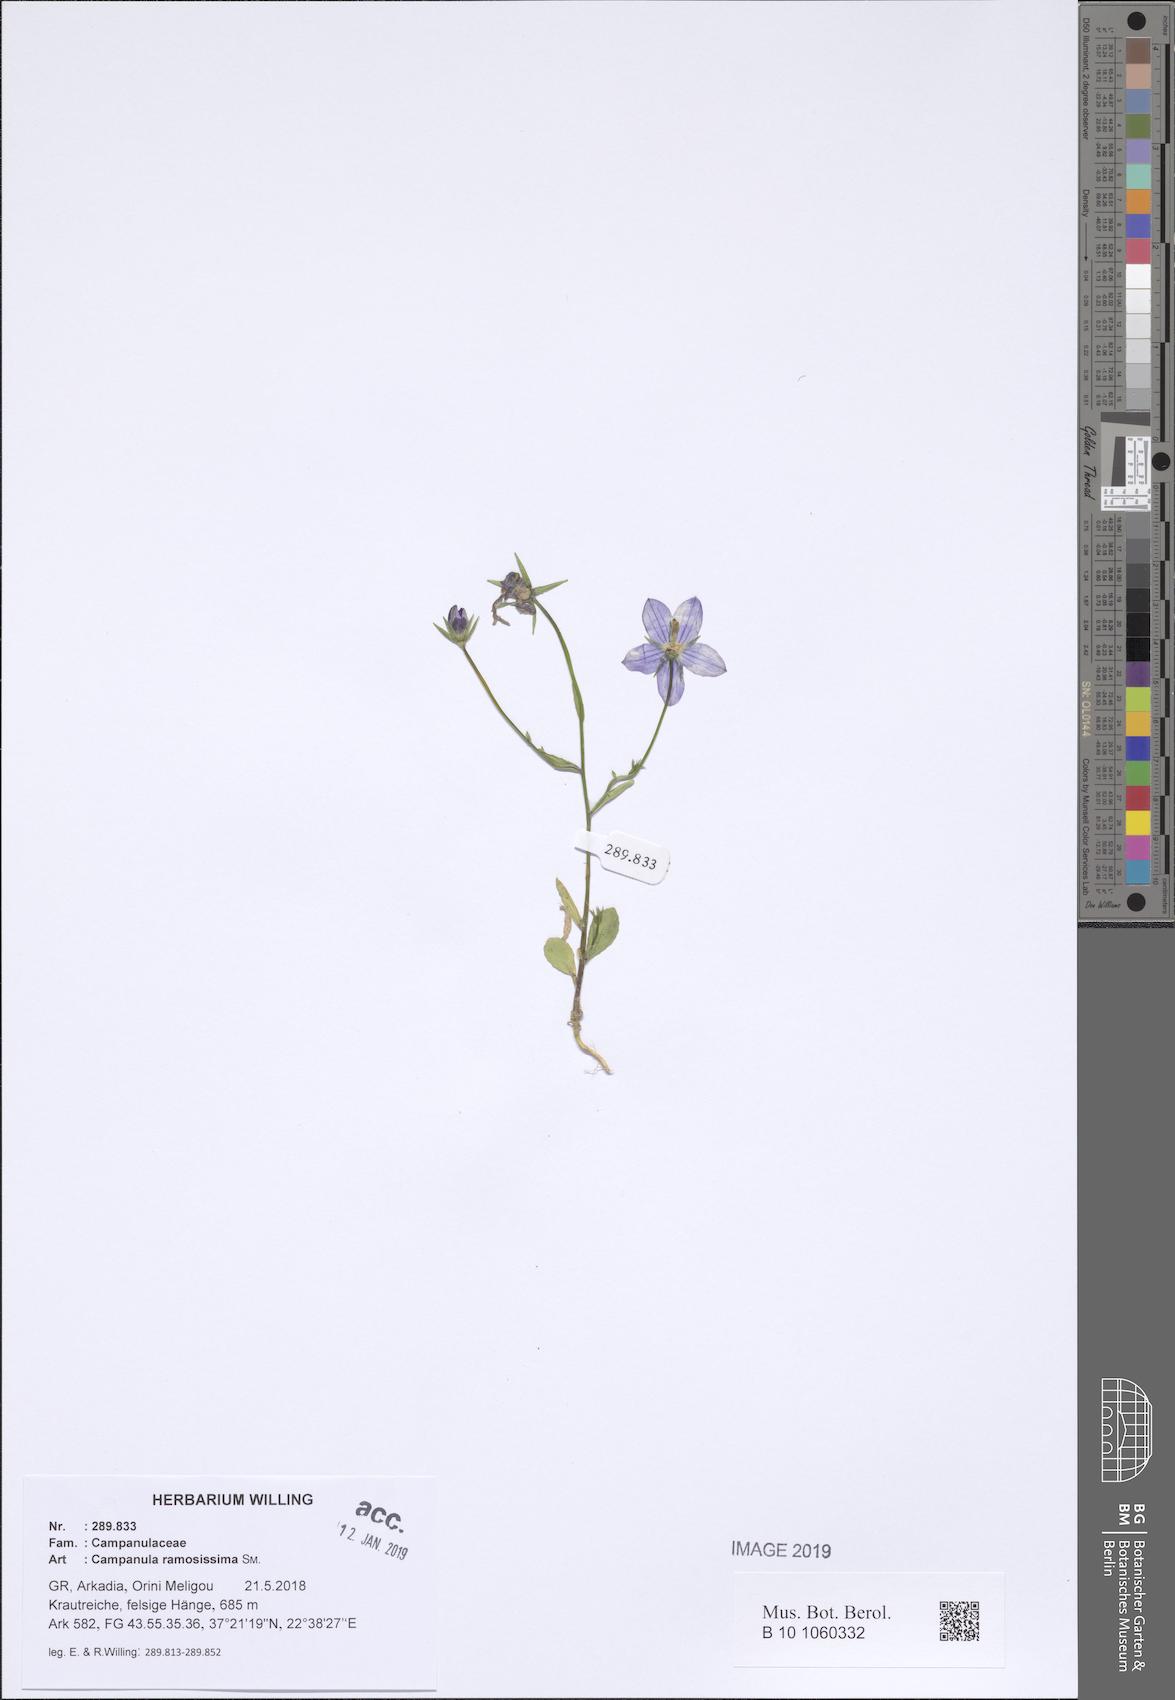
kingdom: Plantae
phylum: Tracheophyta
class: Magnoliopsida
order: Asterales
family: Campanulaceae
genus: Campanula
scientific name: Campanula ramosissima
